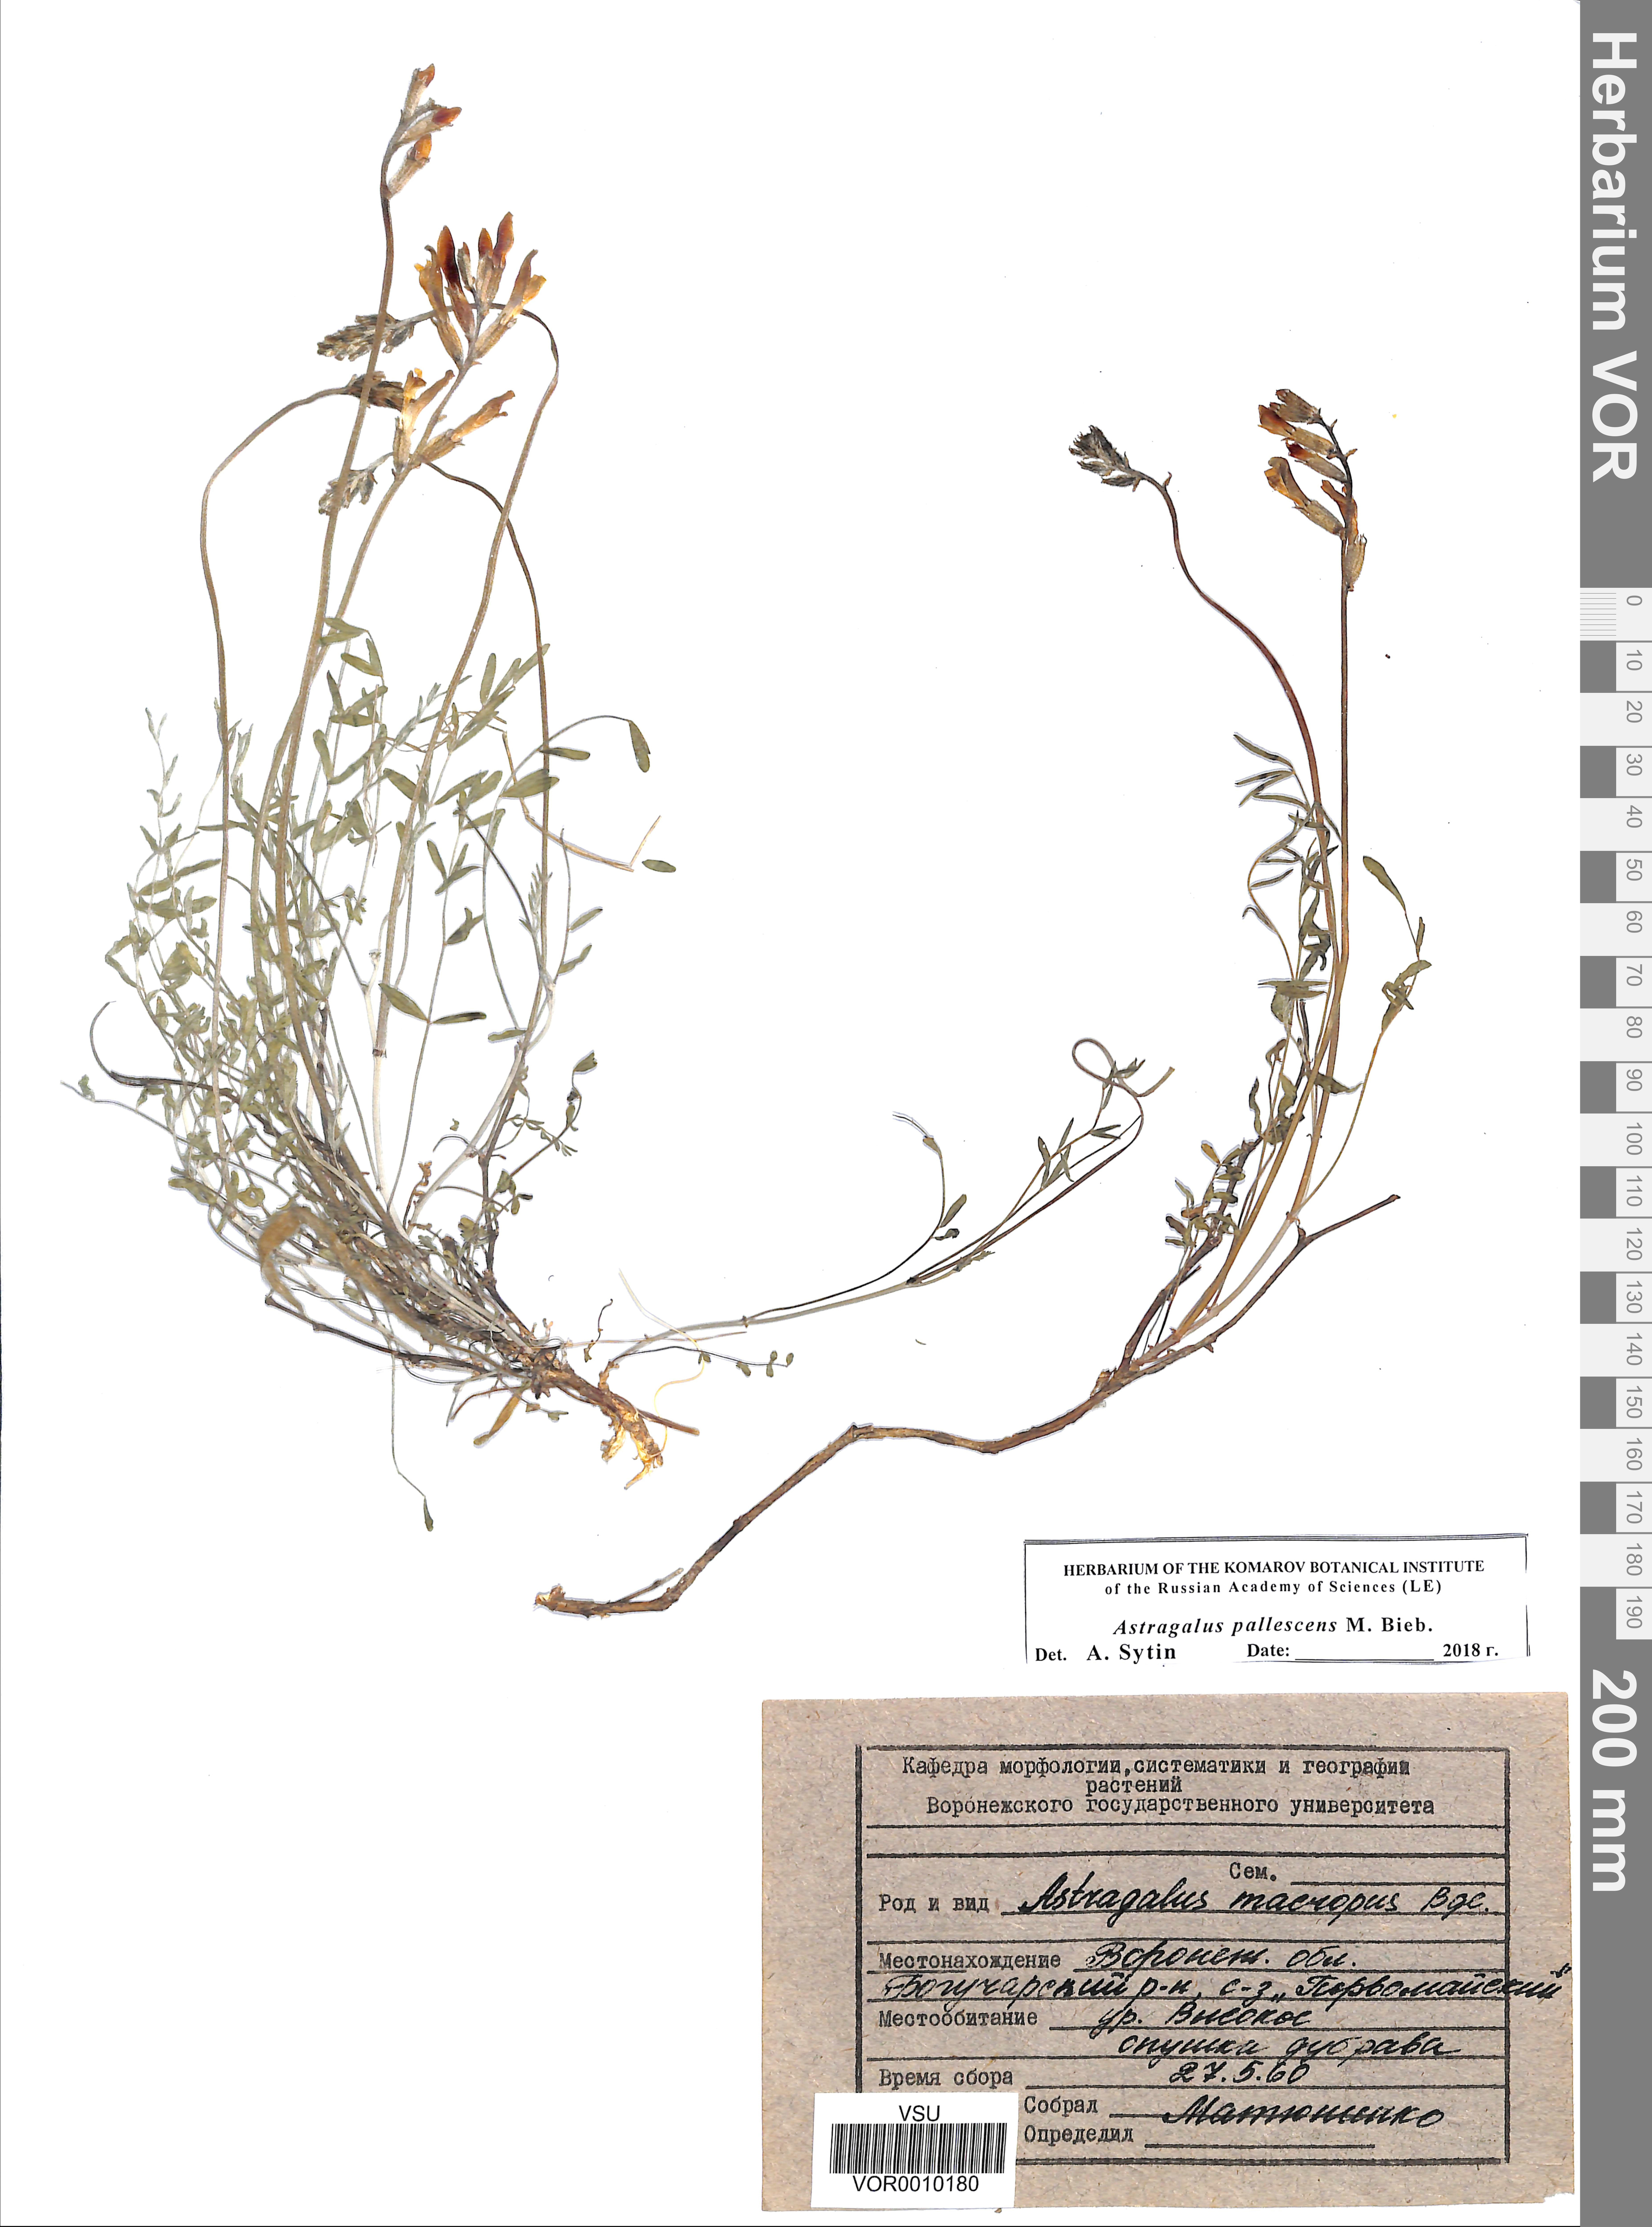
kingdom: Plantae
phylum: Tracheophyta
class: Magnoliopsida
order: Fabales
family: Fabaceae
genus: Astragalus
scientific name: Astragalus pallescens
